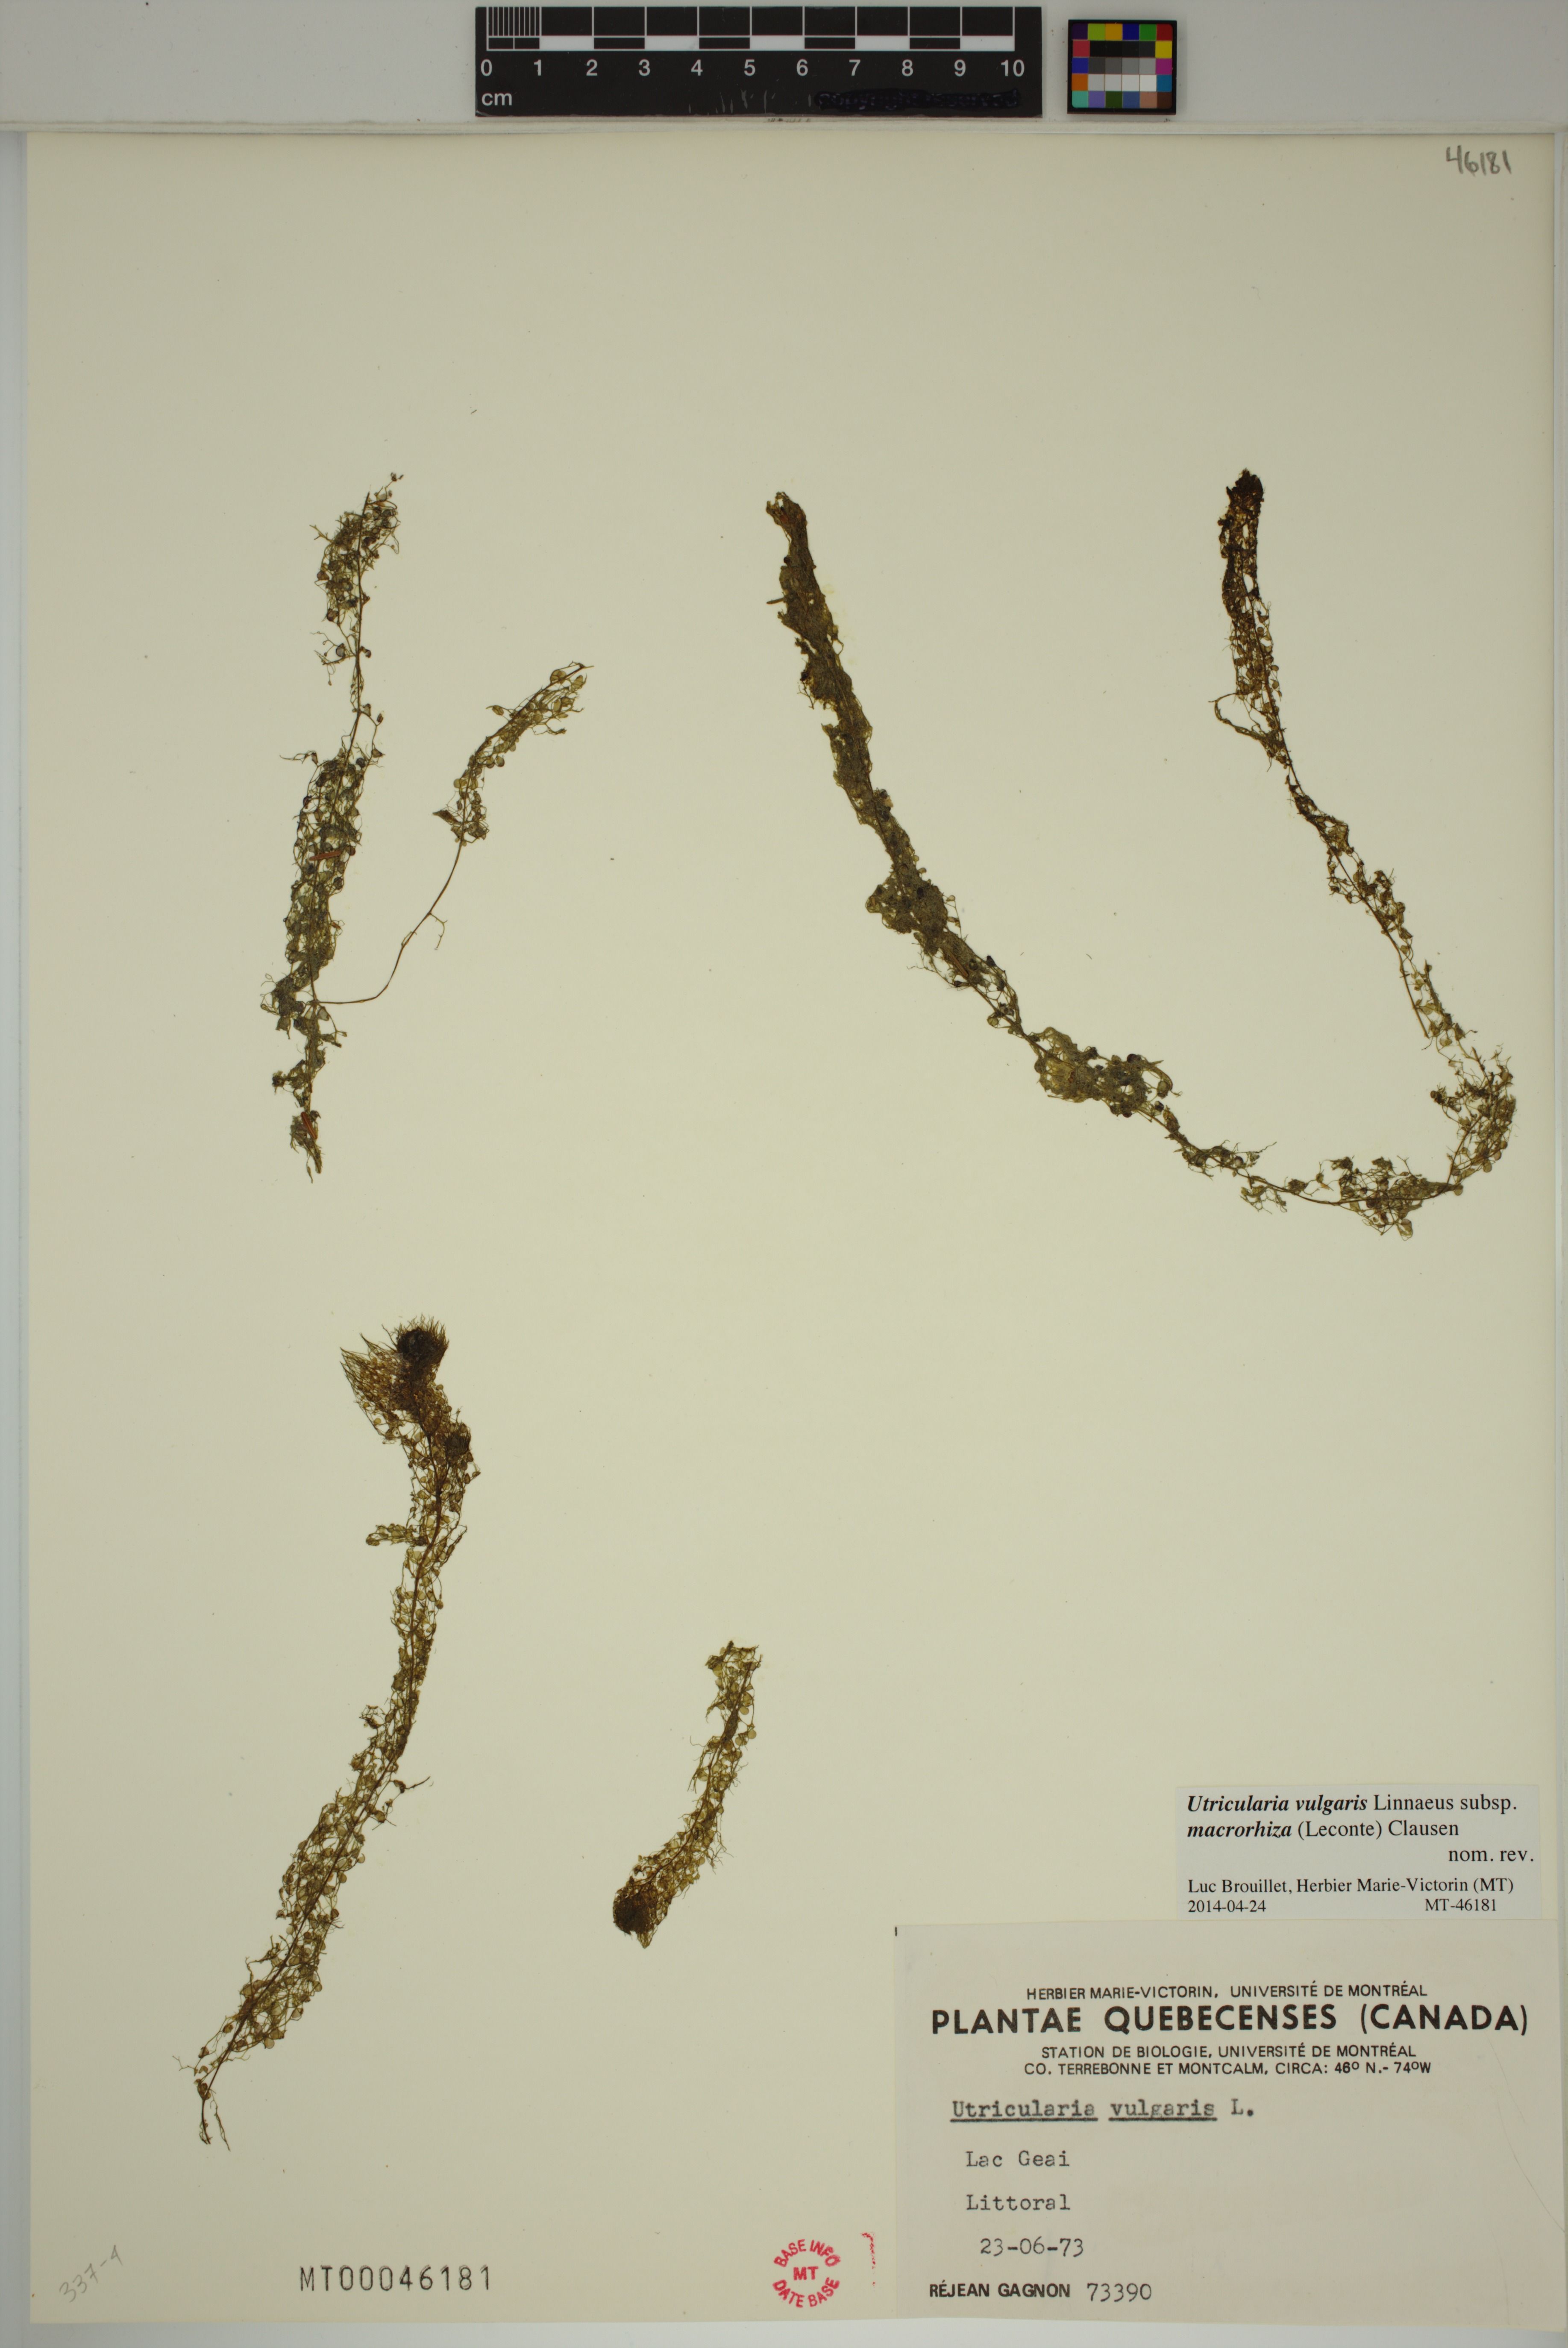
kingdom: Plantae
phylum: Tracheophyta
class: Magnoliopsida
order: Lamiales
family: Lentibulariaceae
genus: Utricularia
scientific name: Utricularia macrorhiza
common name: Common bladderwort
